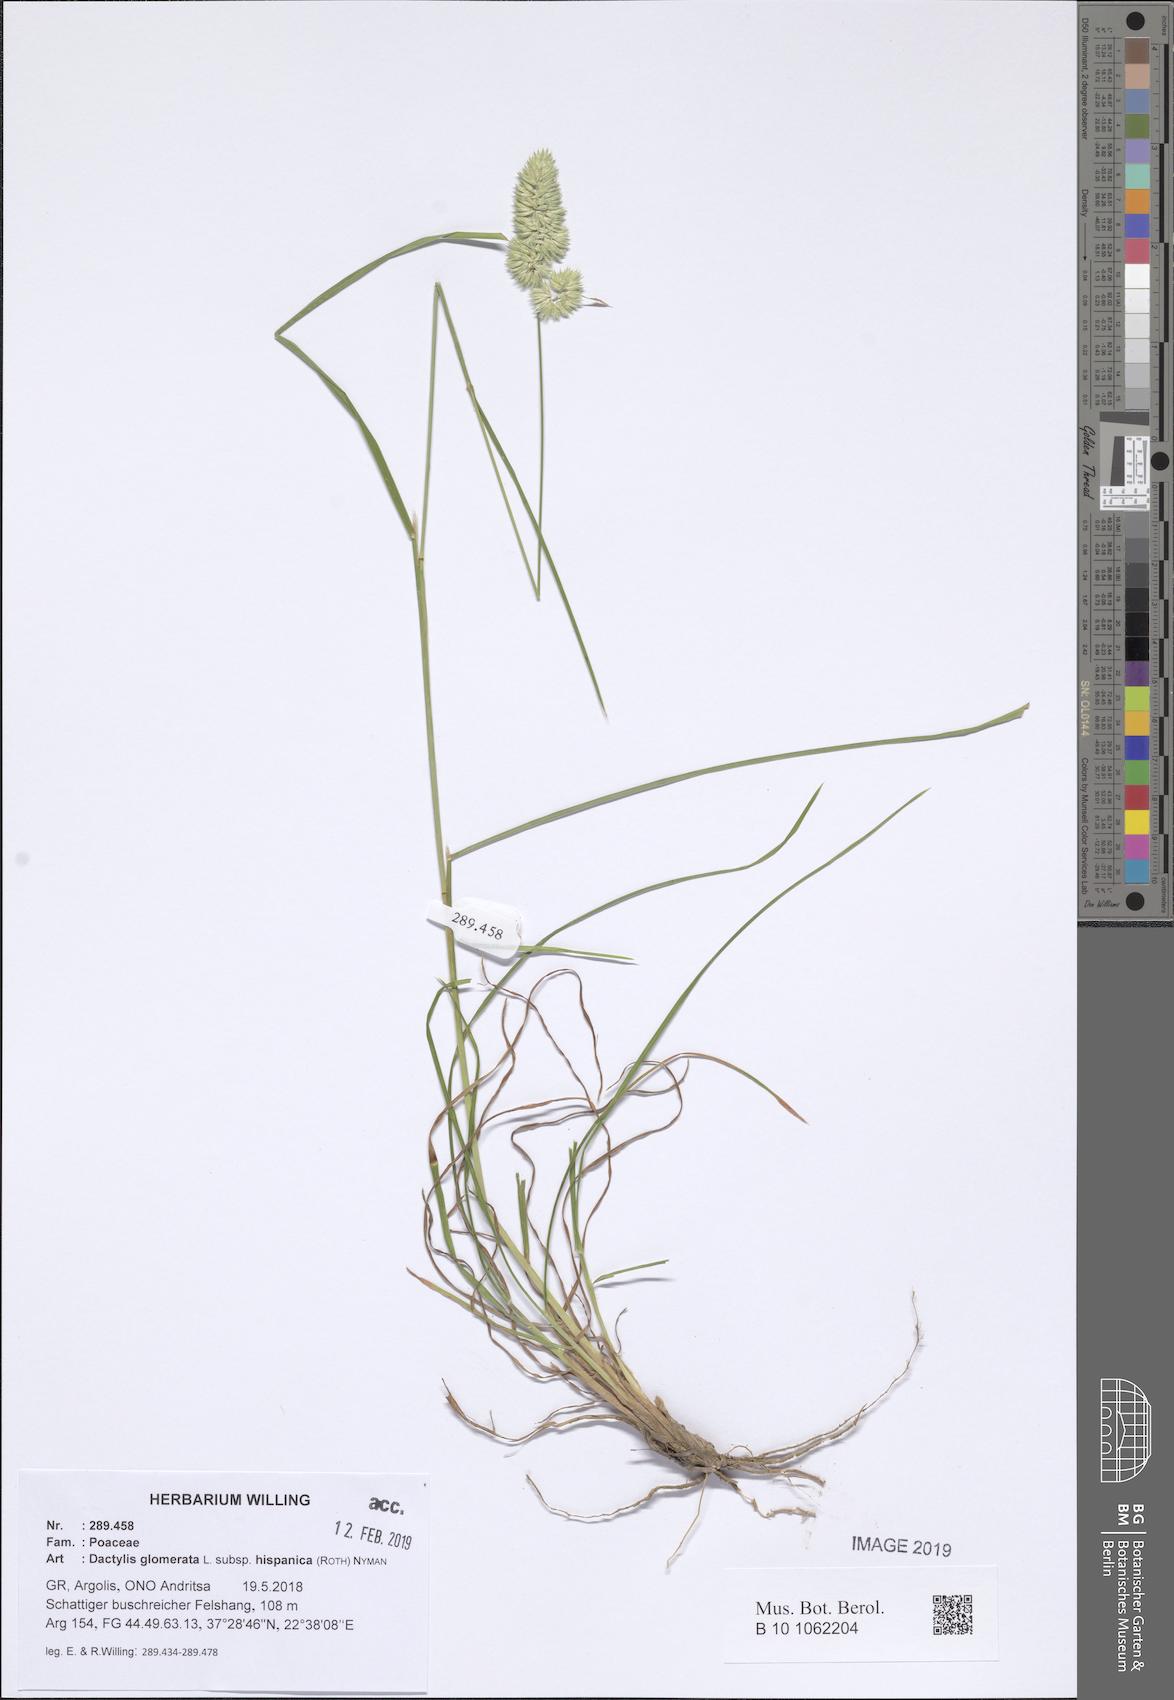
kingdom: Plantae
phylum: Tracheophyta
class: Liliopsida
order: Poales
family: Poaceae
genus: Dactylis
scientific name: Dactylis glomerata
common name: Orchardgrass
